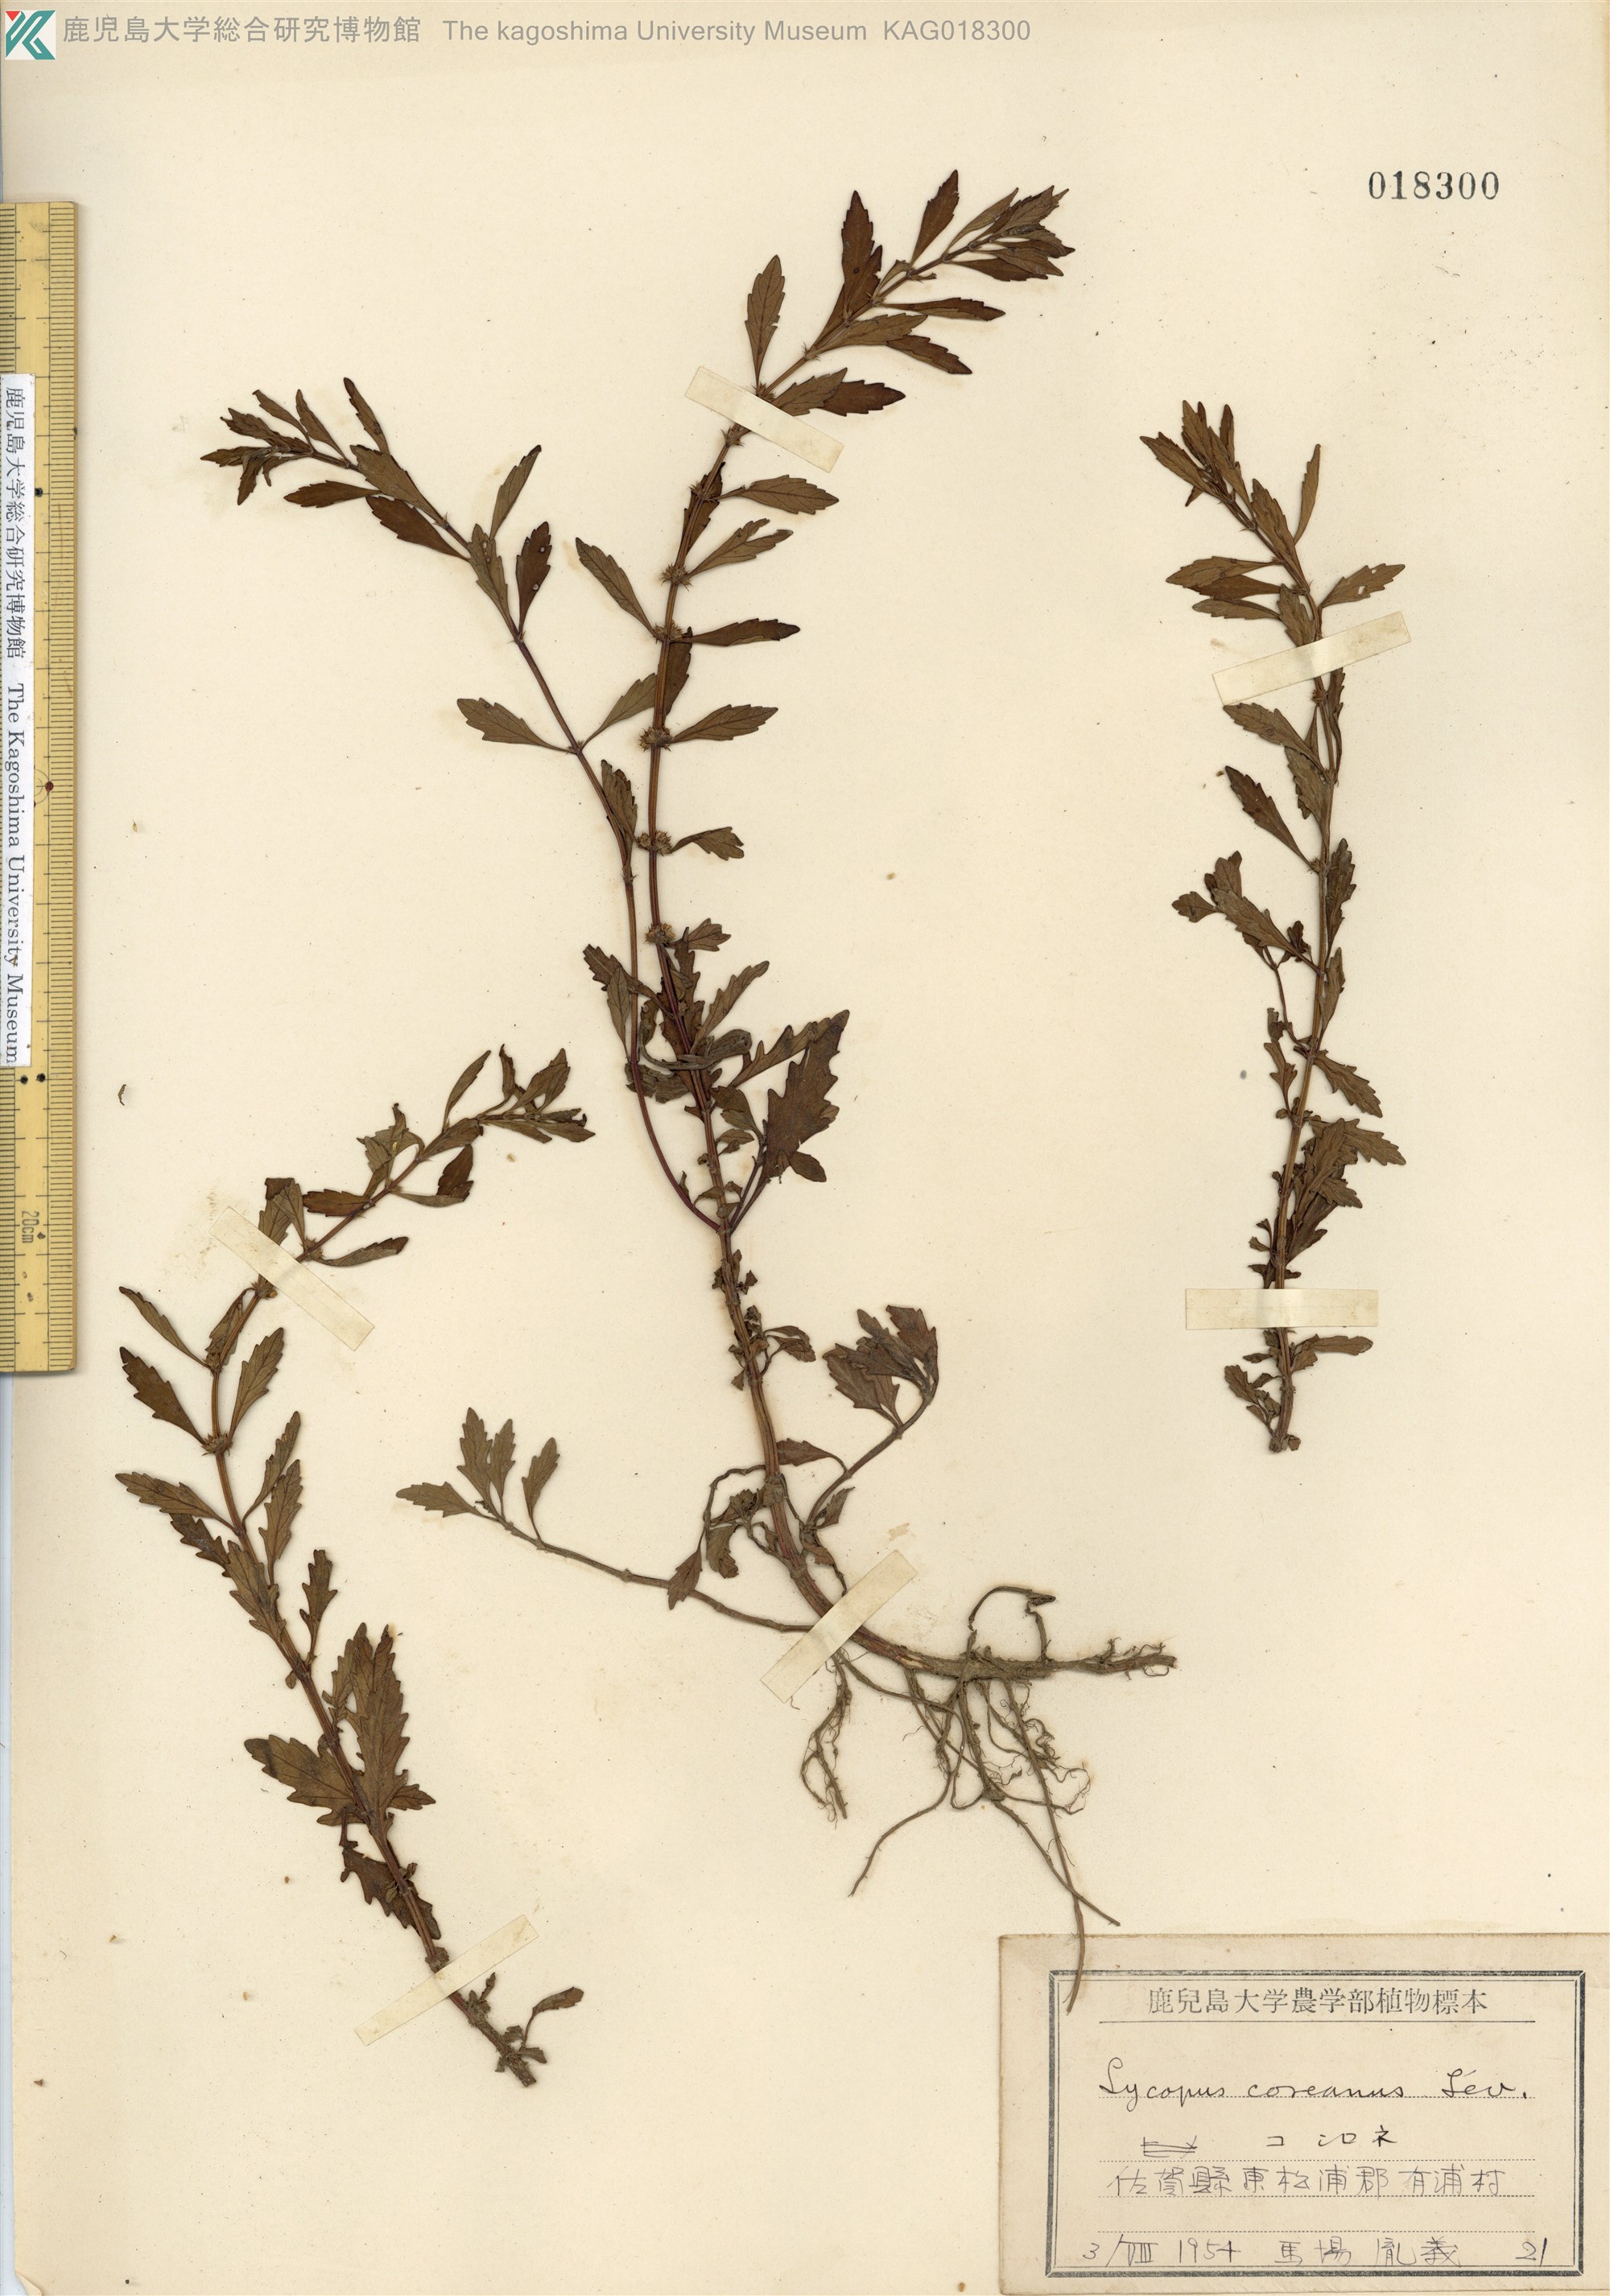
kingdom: Plantae
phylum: Tracheophyta
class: Magnoliopsida
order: Lamiales
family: Lamiaceae
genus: Lycopus
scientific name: Lycopus cavaleriei
